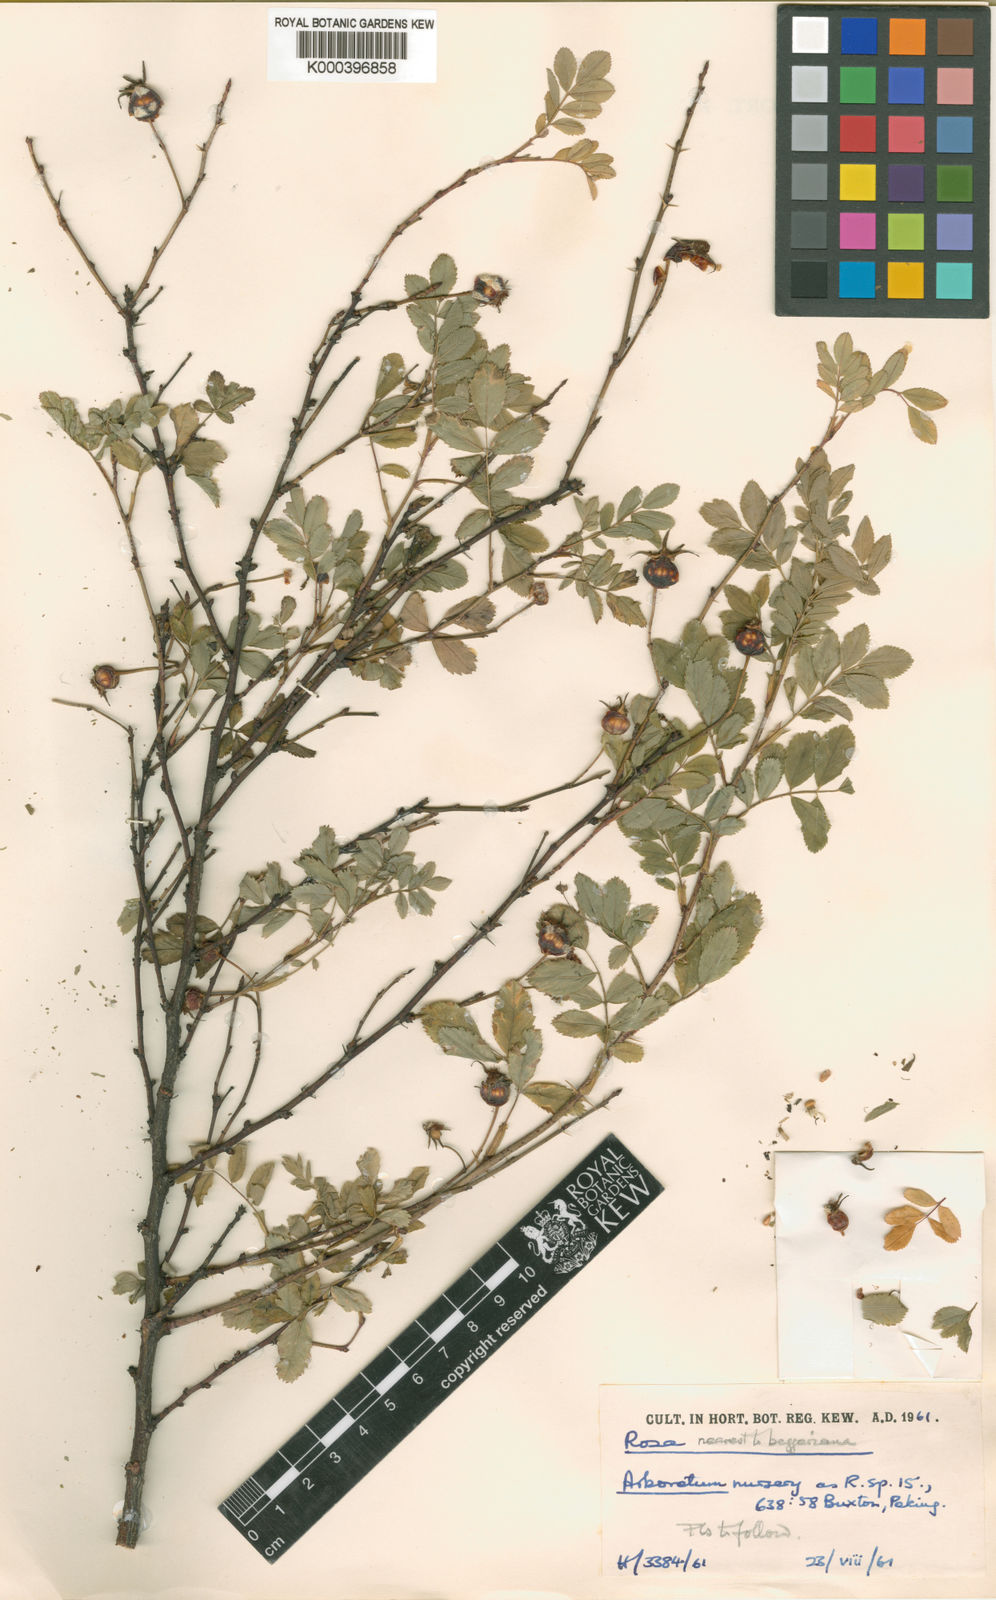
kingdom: Plantae
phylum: Tracheophyta
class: Magnoliopsida
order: Rosales
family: Rosaceae
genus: Rosa
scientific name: Rosa beggeriana
